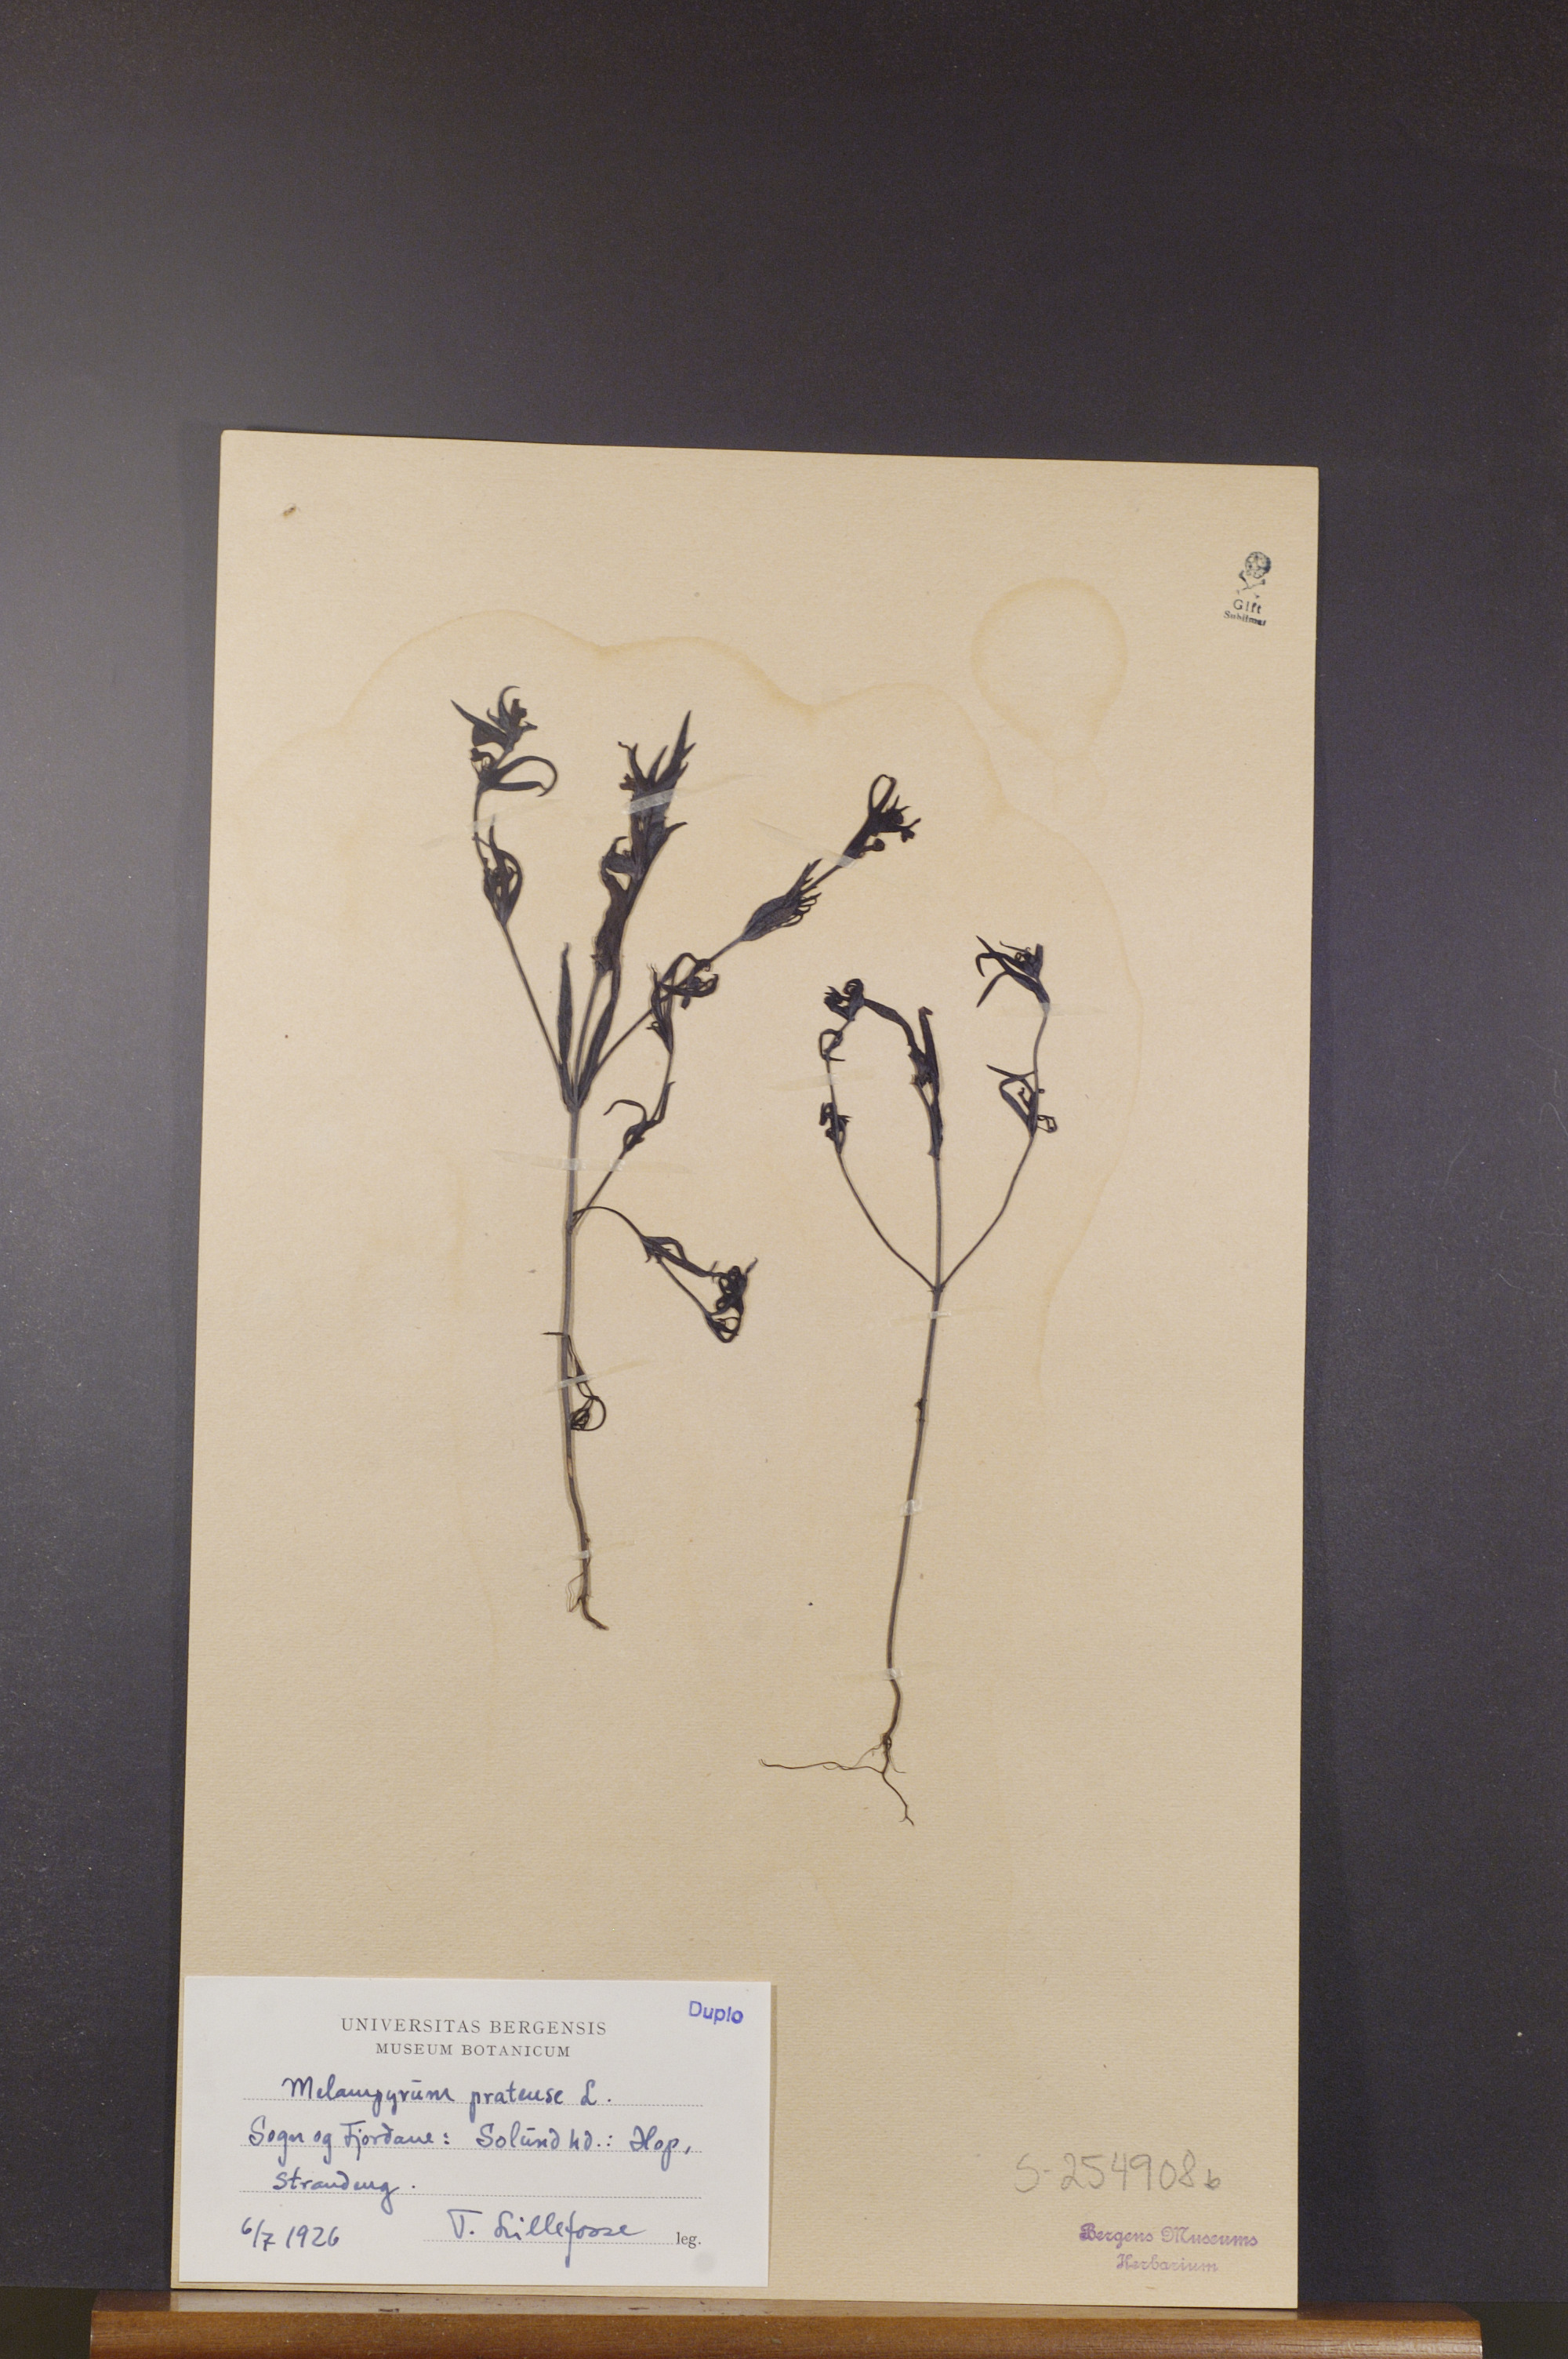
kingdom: Plantae
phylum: Tracheophyta
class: Magnoliopsida
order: Lamiales
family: Orobanchaceae
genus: Melampyrum
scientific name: Melampyrum pratense
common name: Common cow-wheat
